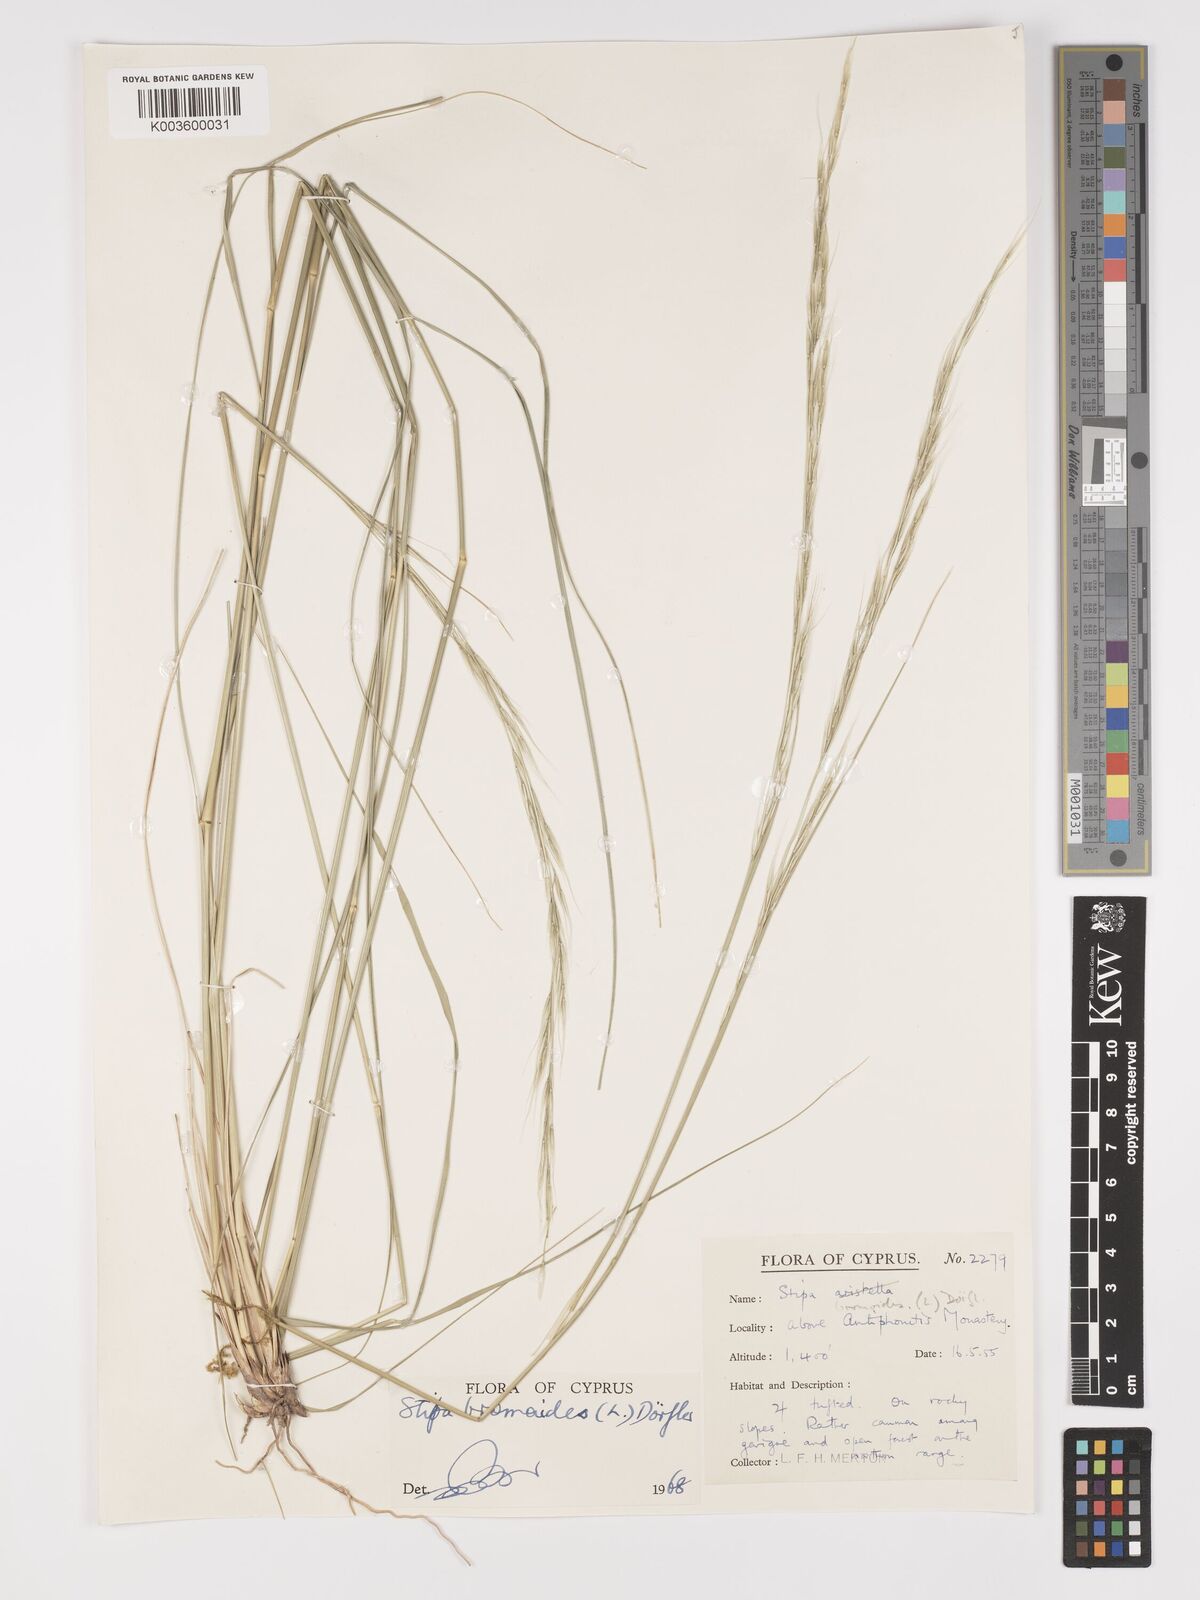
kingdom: Plantae
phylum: Tracheophyta
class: Liliopsida
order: Poales
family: Poaceae
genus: Achnatherum
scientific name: Achnatherum bromoides
